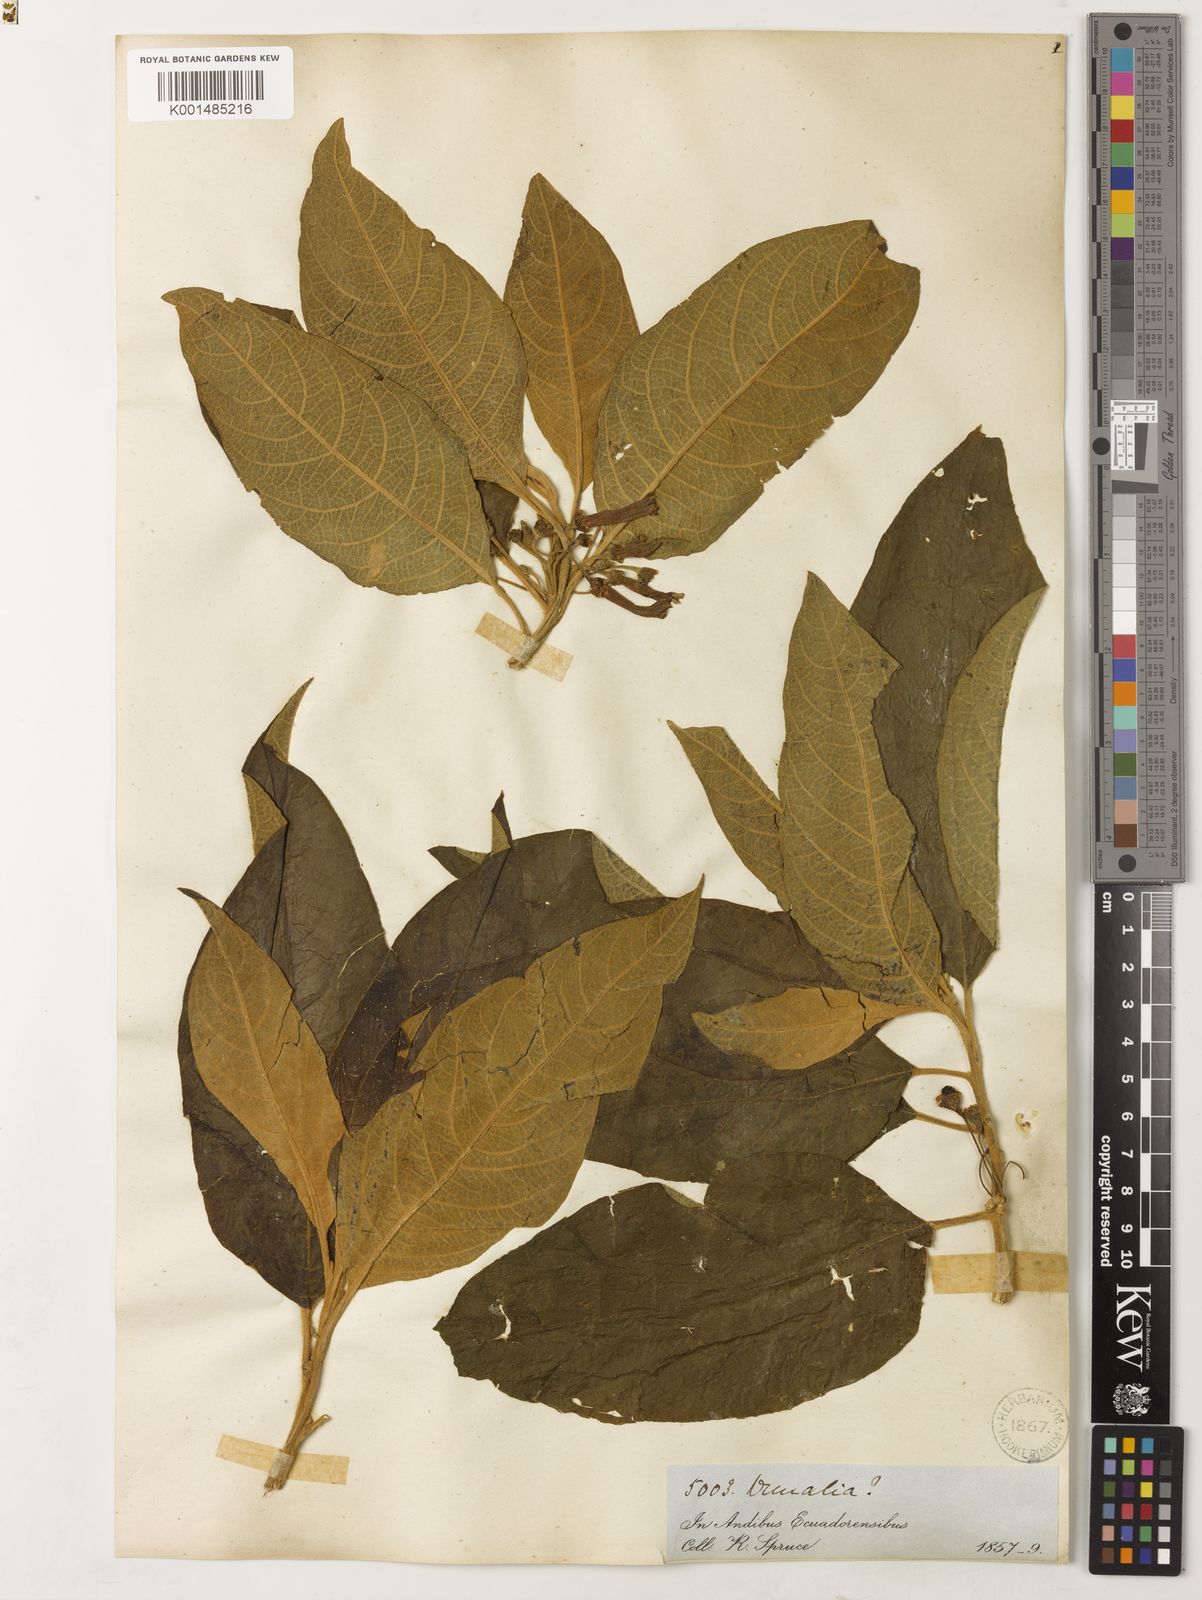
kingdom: Plantae
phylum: Tracheophyta
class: Magnoliopsida
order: Solanales
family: Solanaceae
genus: Iochroma
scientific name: Iochroma gesnerioides
